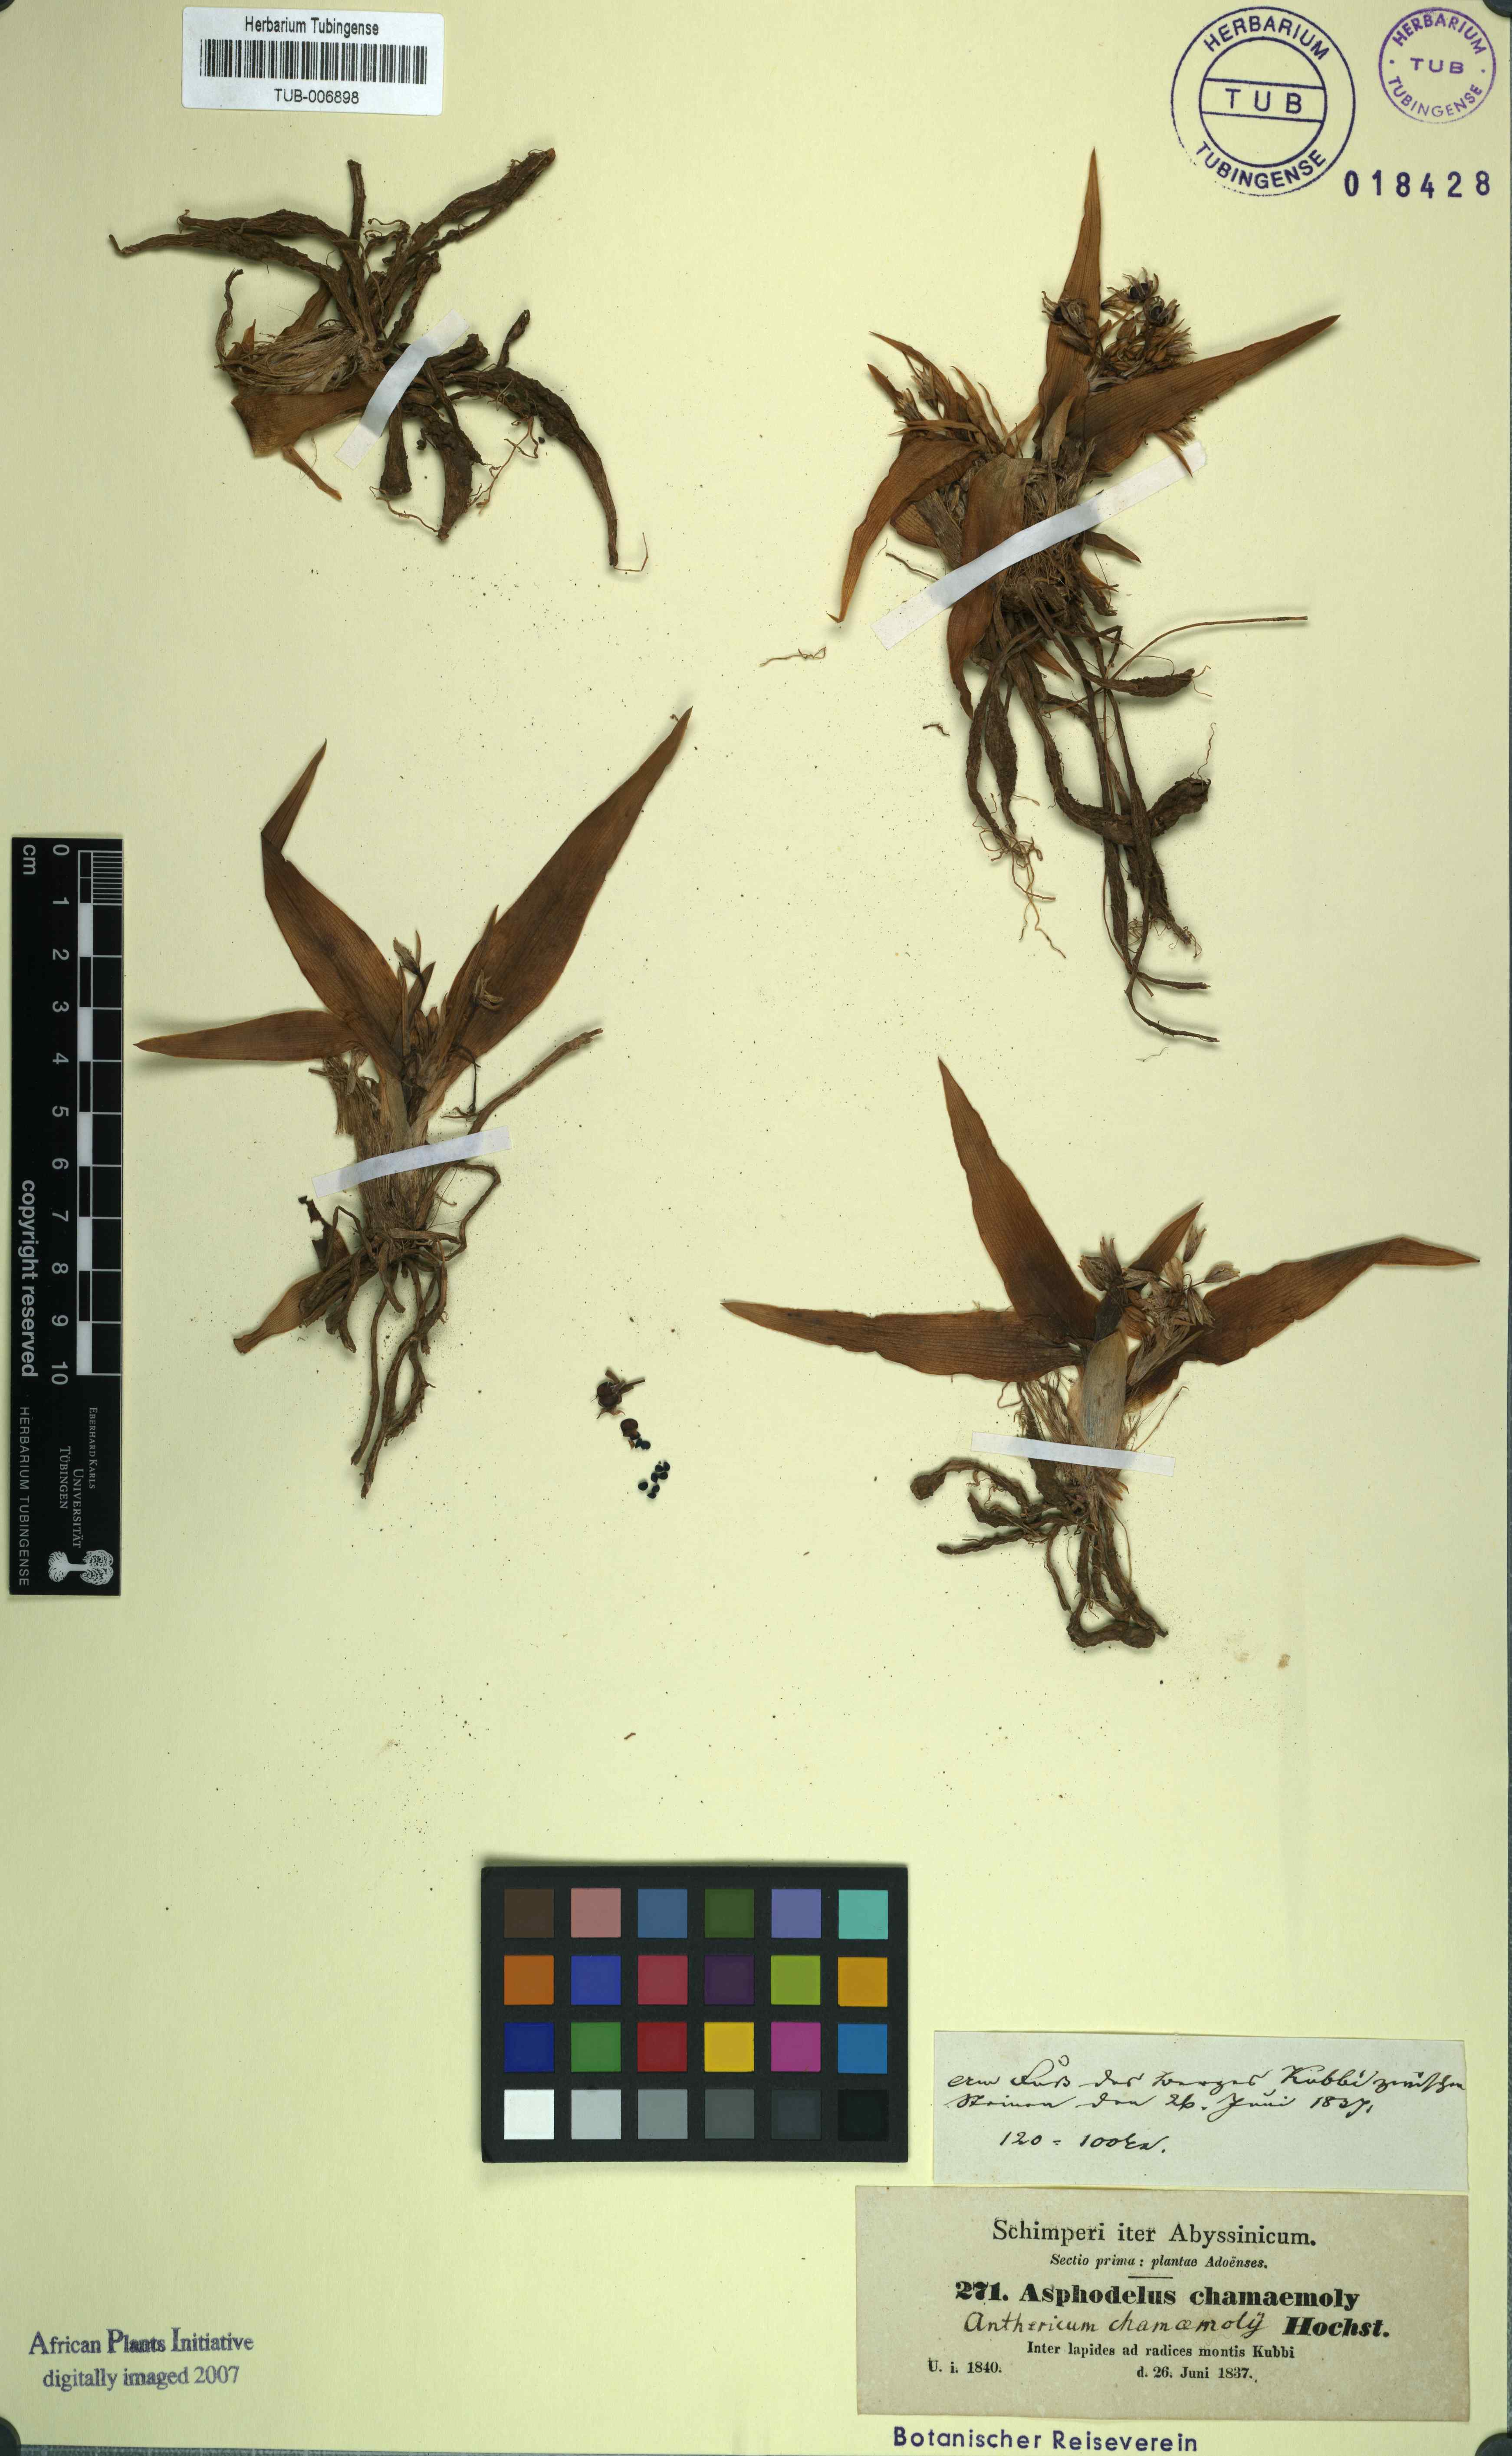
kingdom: Plantae
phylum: Tracheophyta
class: Liliopsida
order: Asparagales
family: Asparagaceae
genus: Chlorophytum
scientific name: Chlorophytum tetraphyllum
